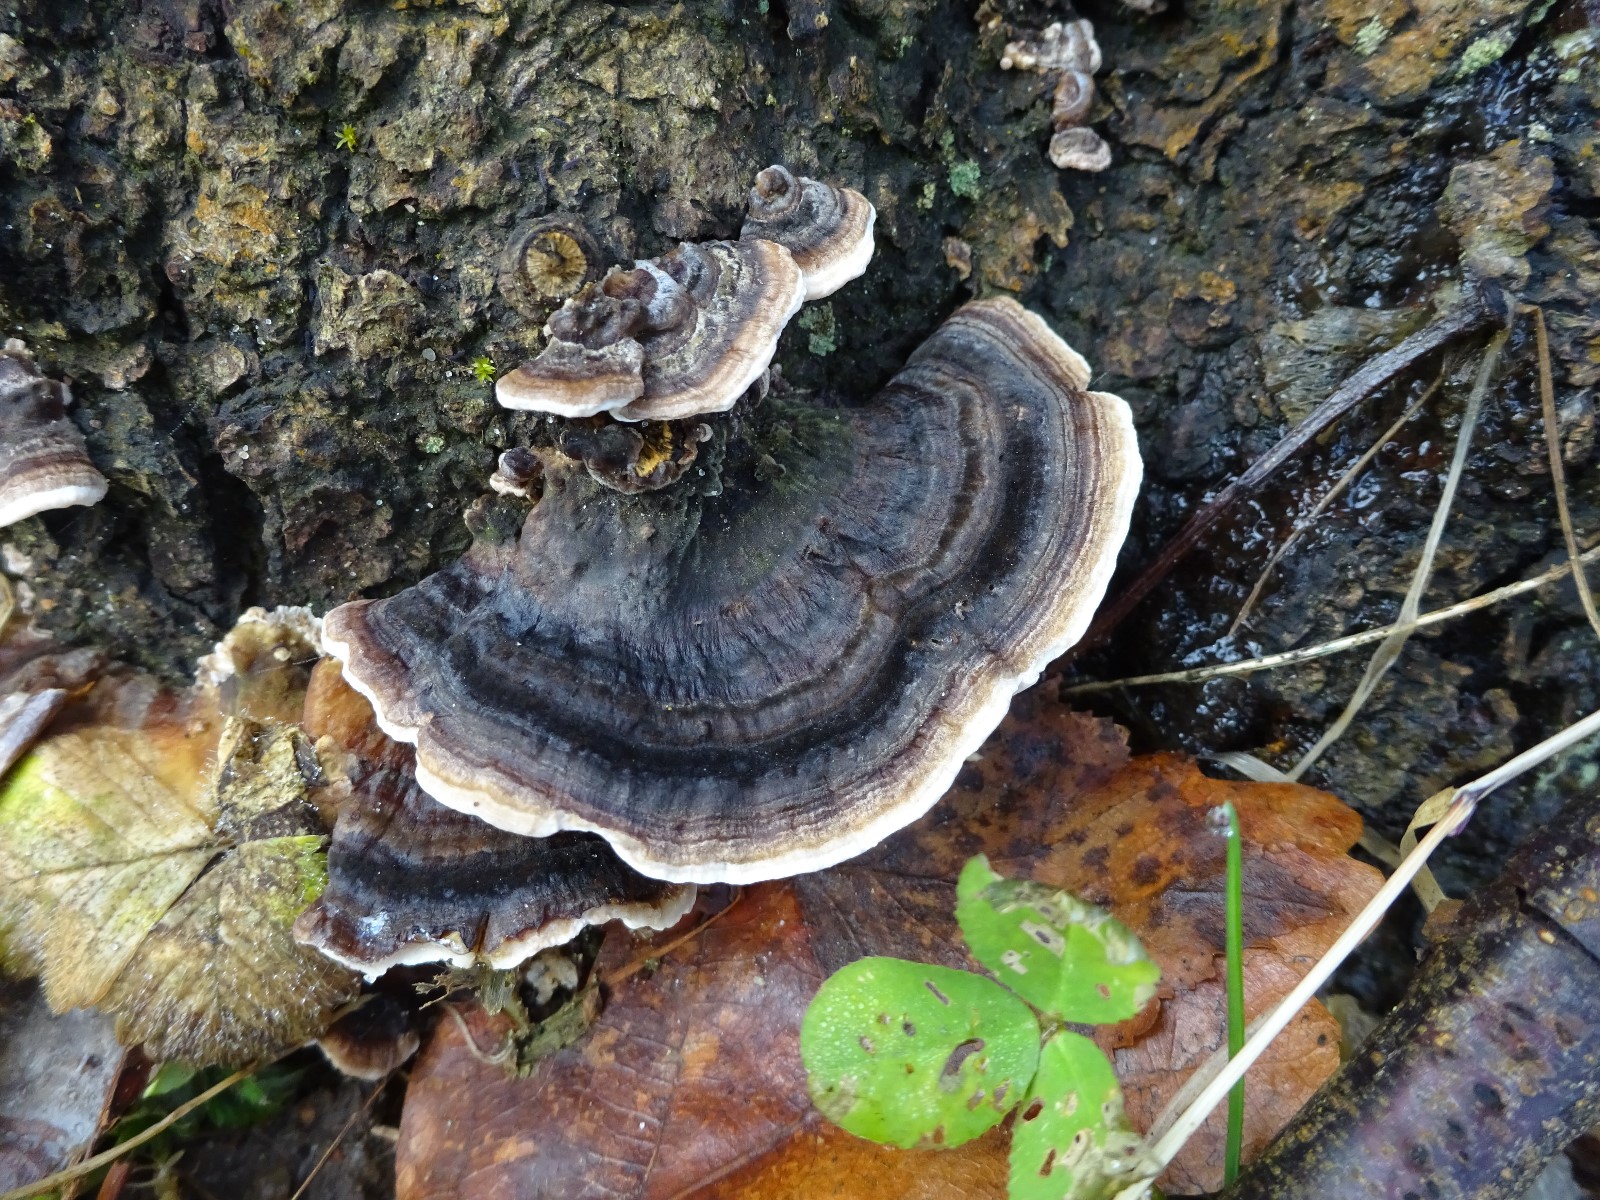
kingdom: Fungi
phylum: Basidiomycota
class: Agaricomycetes
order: Polyporales
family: Polyporaceae
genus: Trametes
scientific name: Trametes versicolor
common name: broget læderporesvamp
